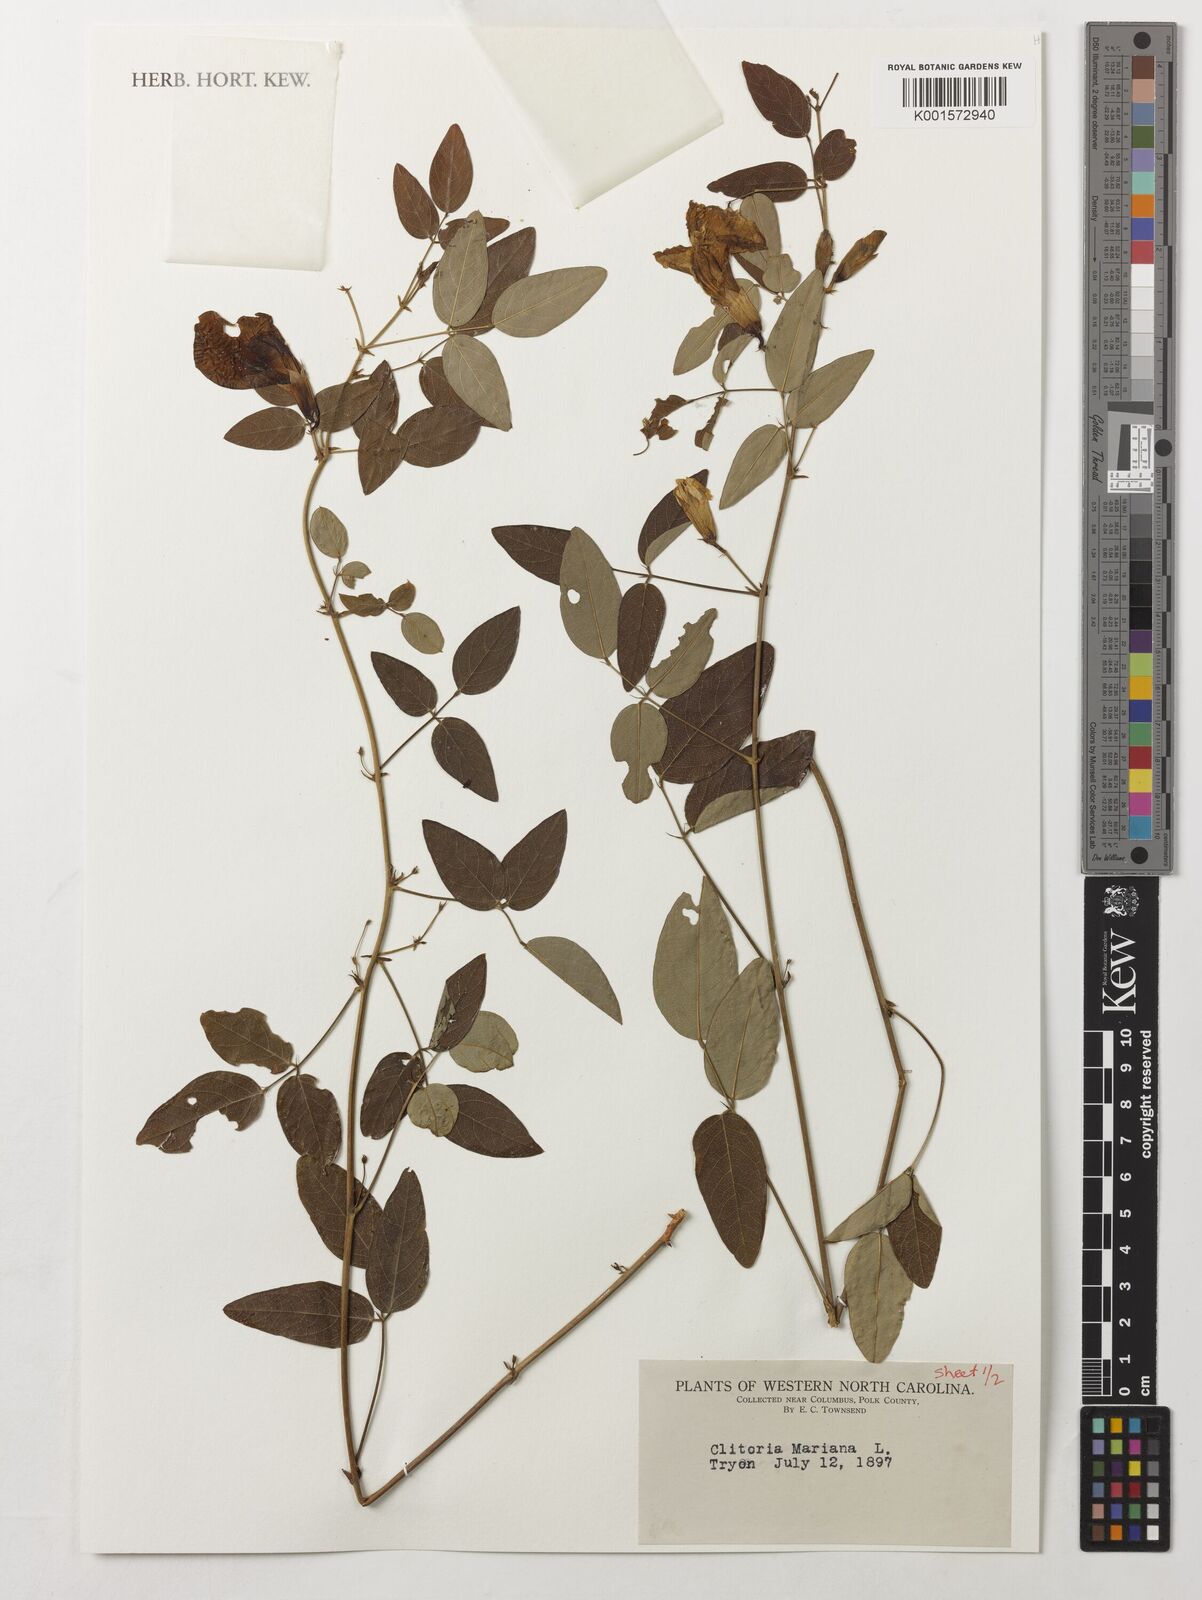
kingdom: Plantae
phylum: Tracheophyta
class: Magnoliopsida
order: Fabales
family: Fabaceae
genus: Clitoria
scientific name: Clitoria mariana
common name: Butterfly-pea
